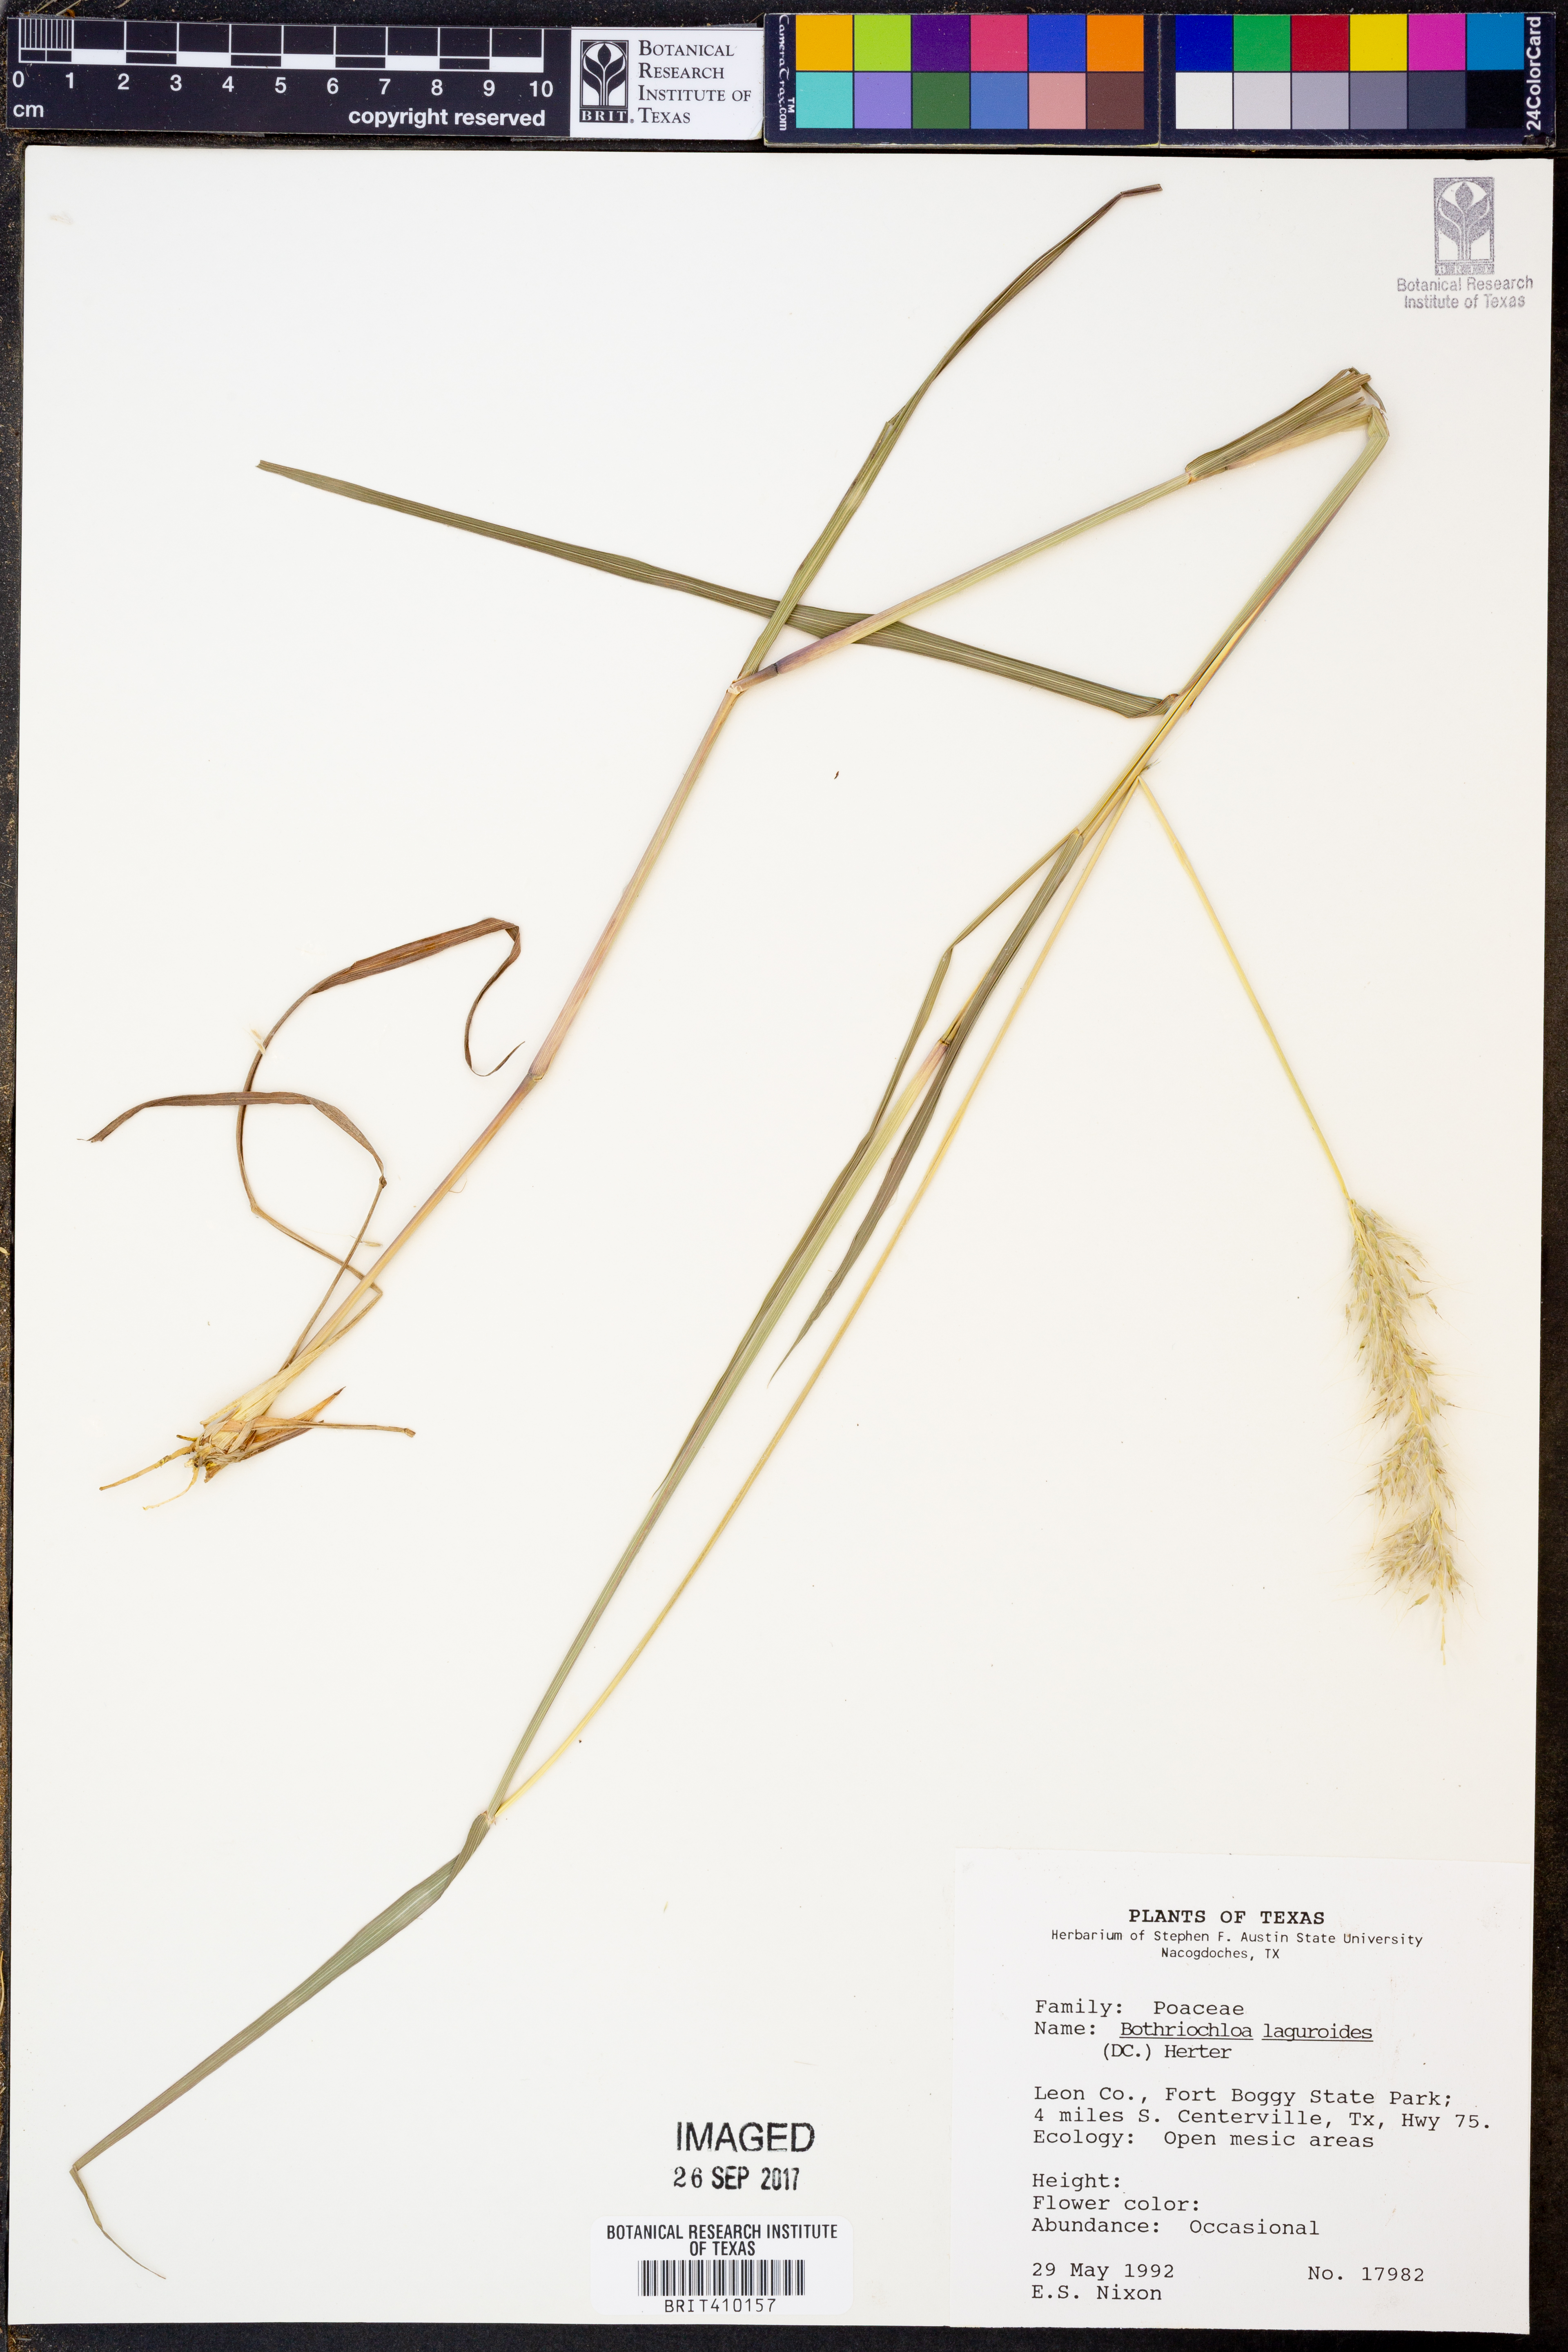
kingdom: Plantae
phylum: Tracheophyta
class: Liliopsida
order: Poales
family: Poaceae
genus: Bothriochloa
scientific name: Bothriochloa laguroides
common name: Silver bluestem
